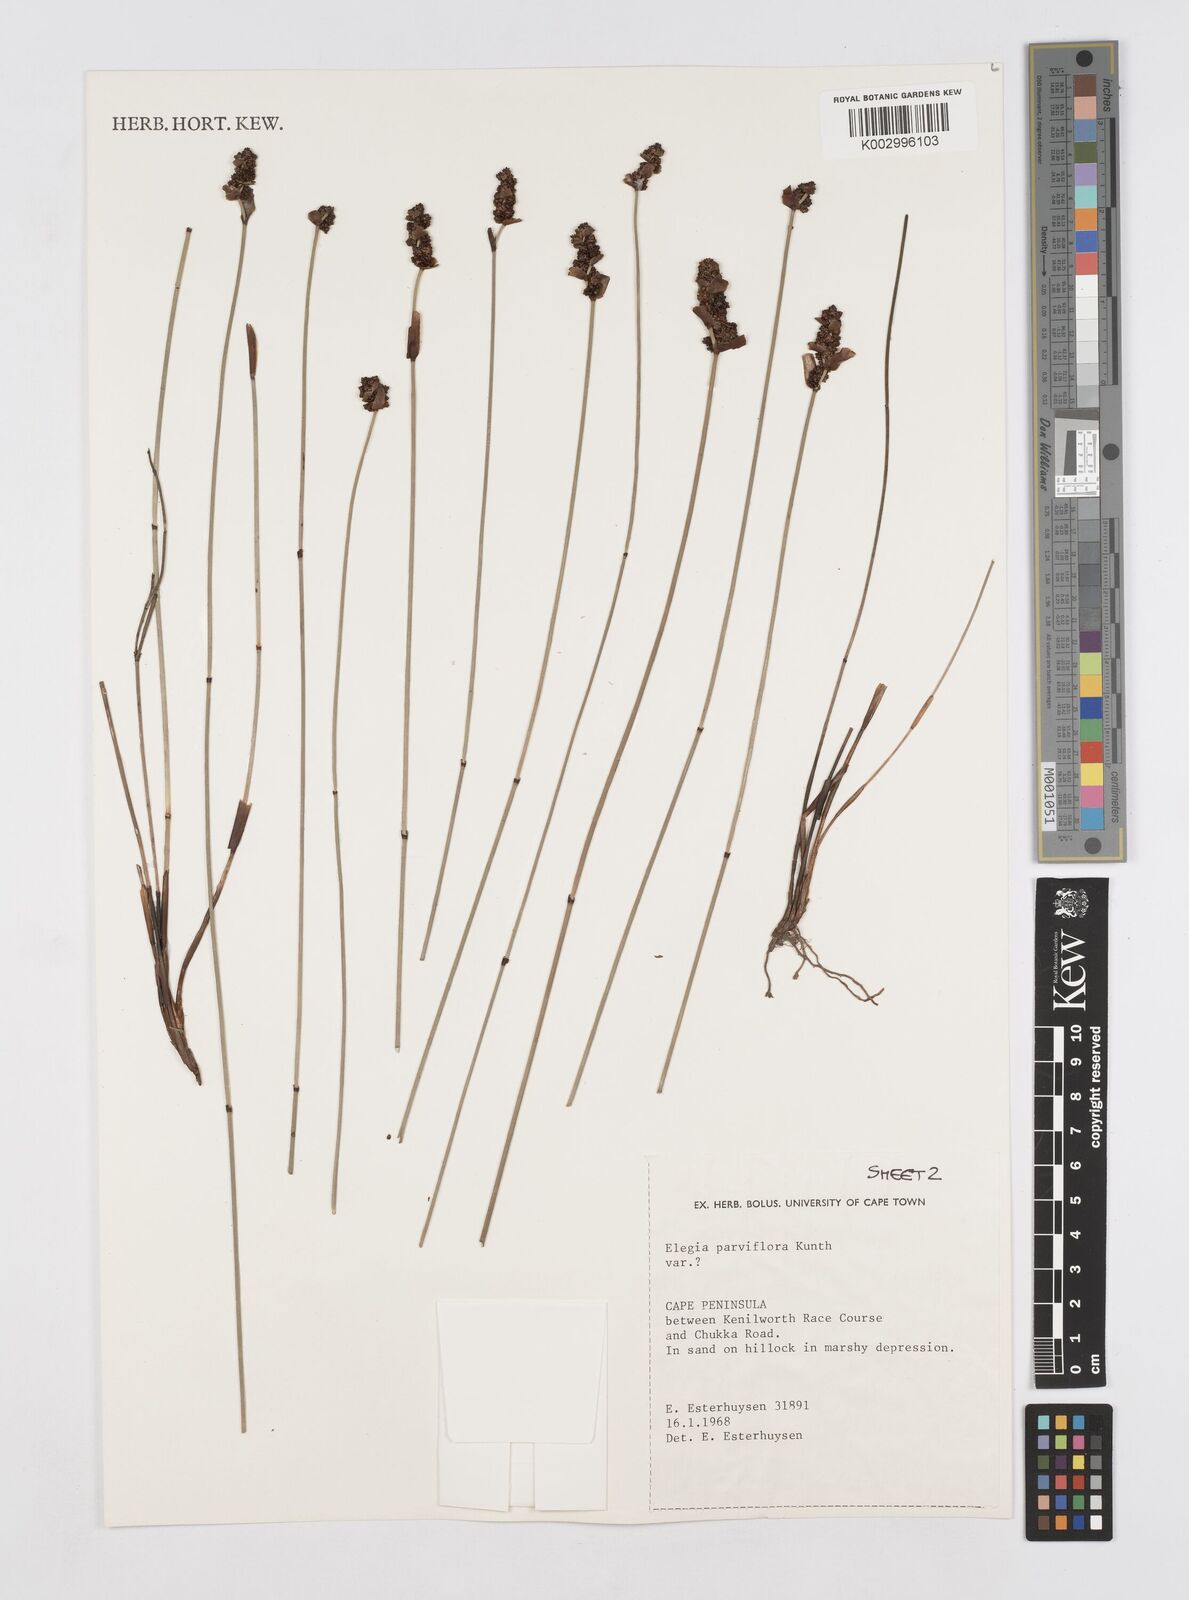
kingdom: Plantae
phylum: Tracheophyta
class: Liliopsida
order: Poales
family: Restionaceae
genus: Cannomois
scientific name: Cannomois parviflora
